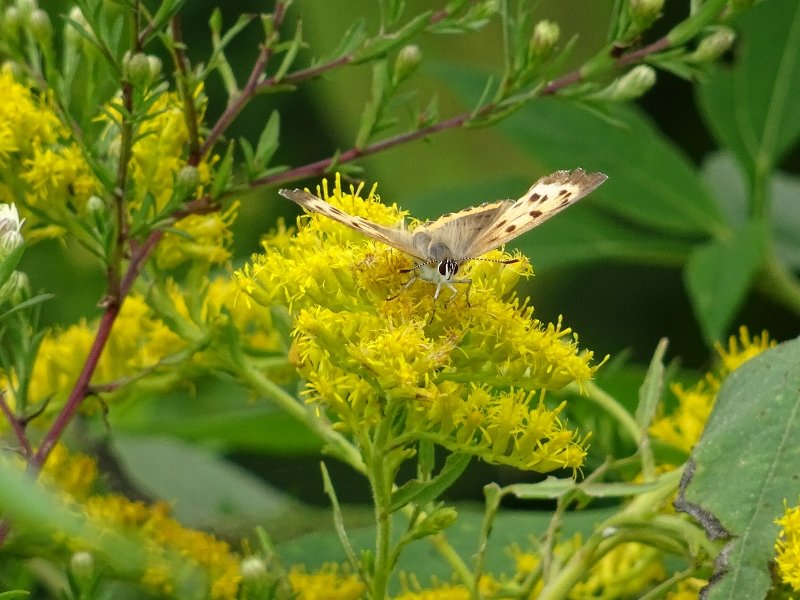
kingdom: Animalia
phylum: Arthropoda
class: Insecta
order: Lepidoptera
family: Sesiidae
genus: Sesia
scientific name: Sesia Lycaena hyllus
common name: Bronze Copper
